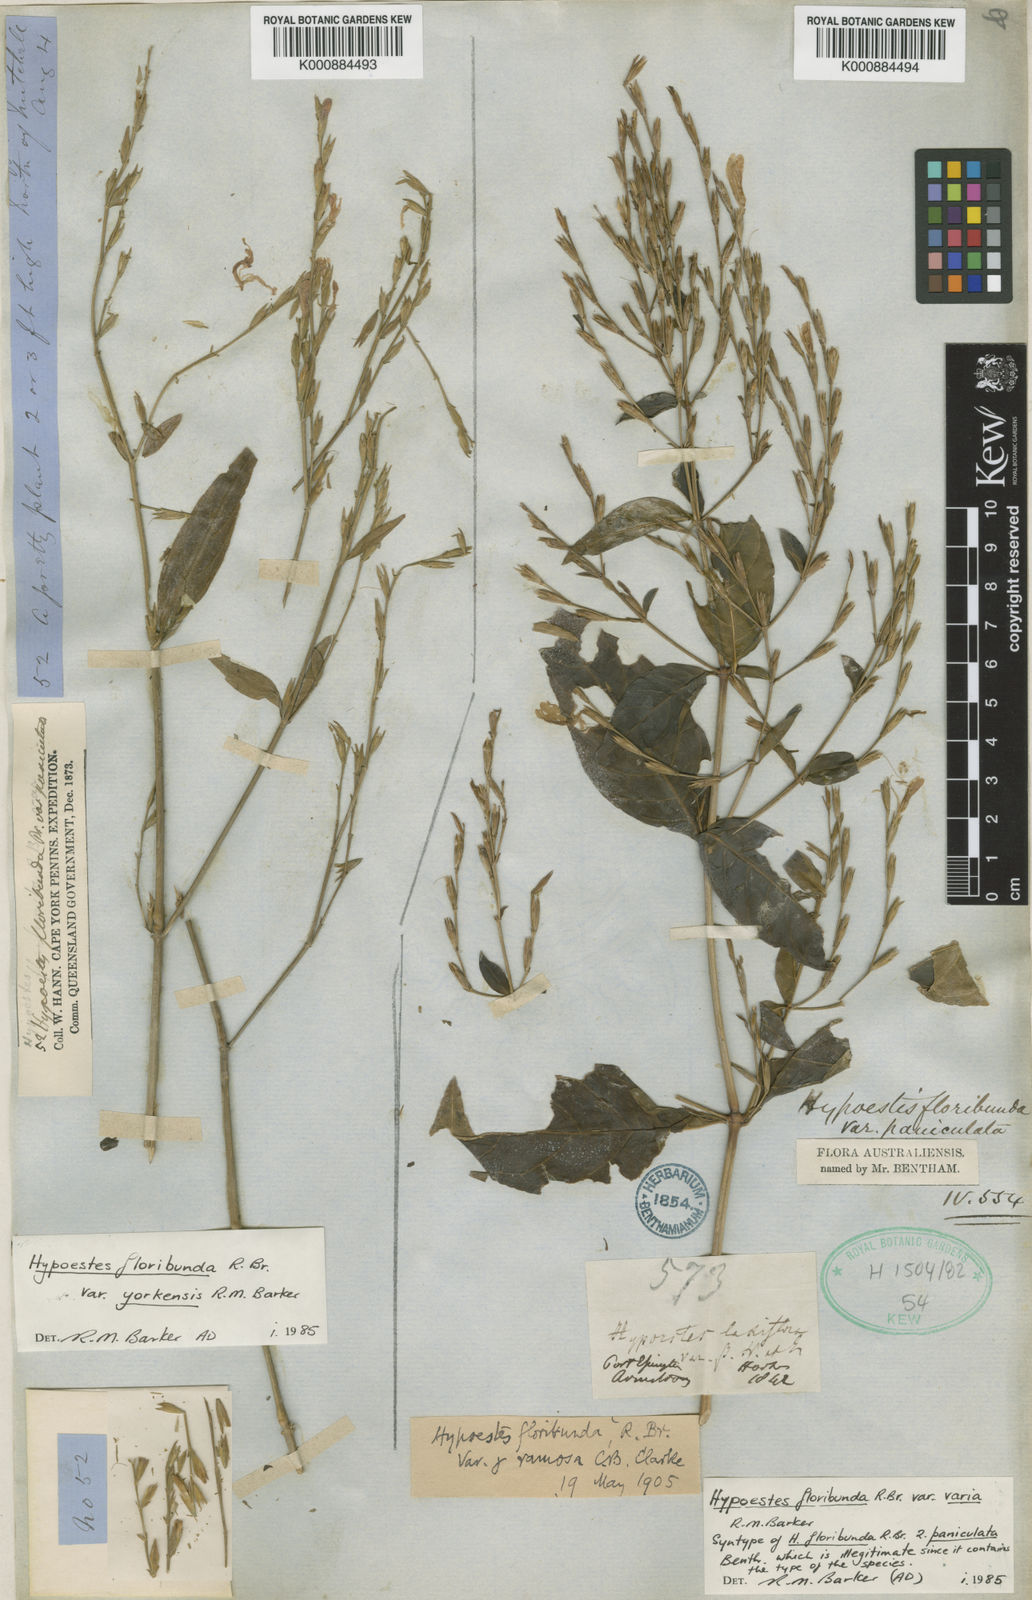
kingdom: Plantae
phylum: Tracheophyta
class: Magnoliopsida
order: Lamiales
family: Acanthaceae
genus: Hypoestes
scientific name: Hypoestes floribunda
